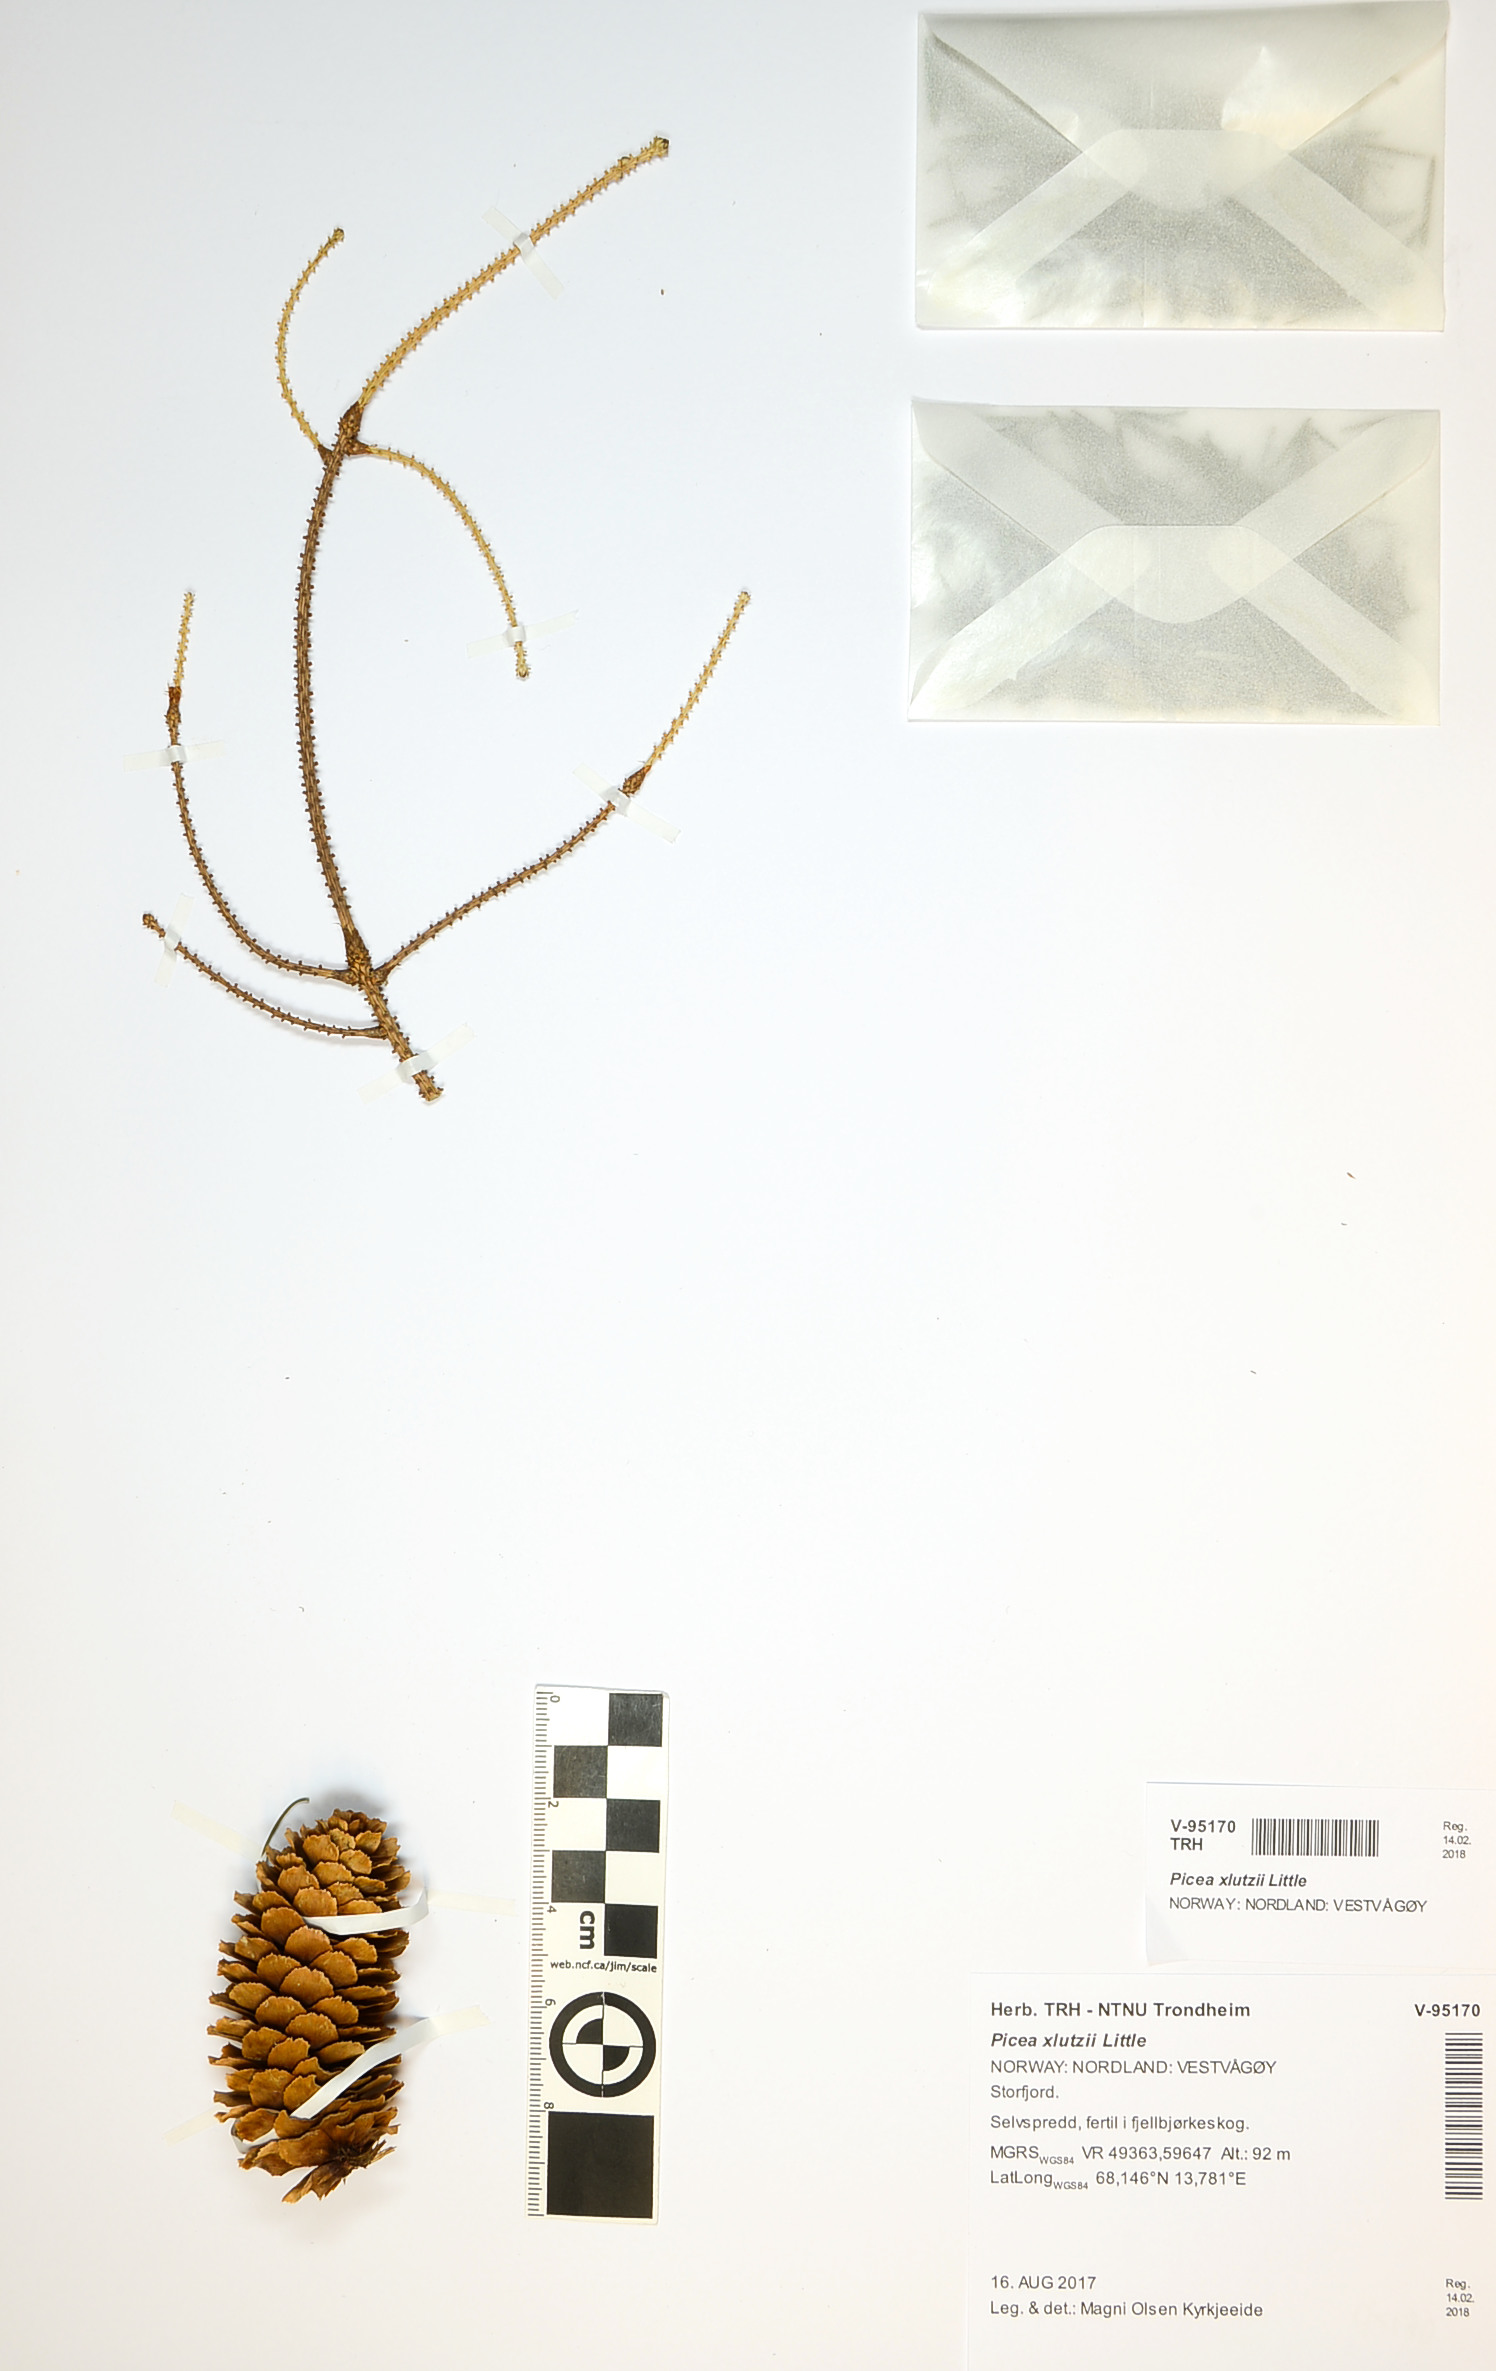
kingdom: Plantae
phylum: Tracheophyta
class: Pinopsida
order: Pinales
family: Pinaceae
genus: Picea
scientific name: Picea lutzii
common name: Lutz spruce
